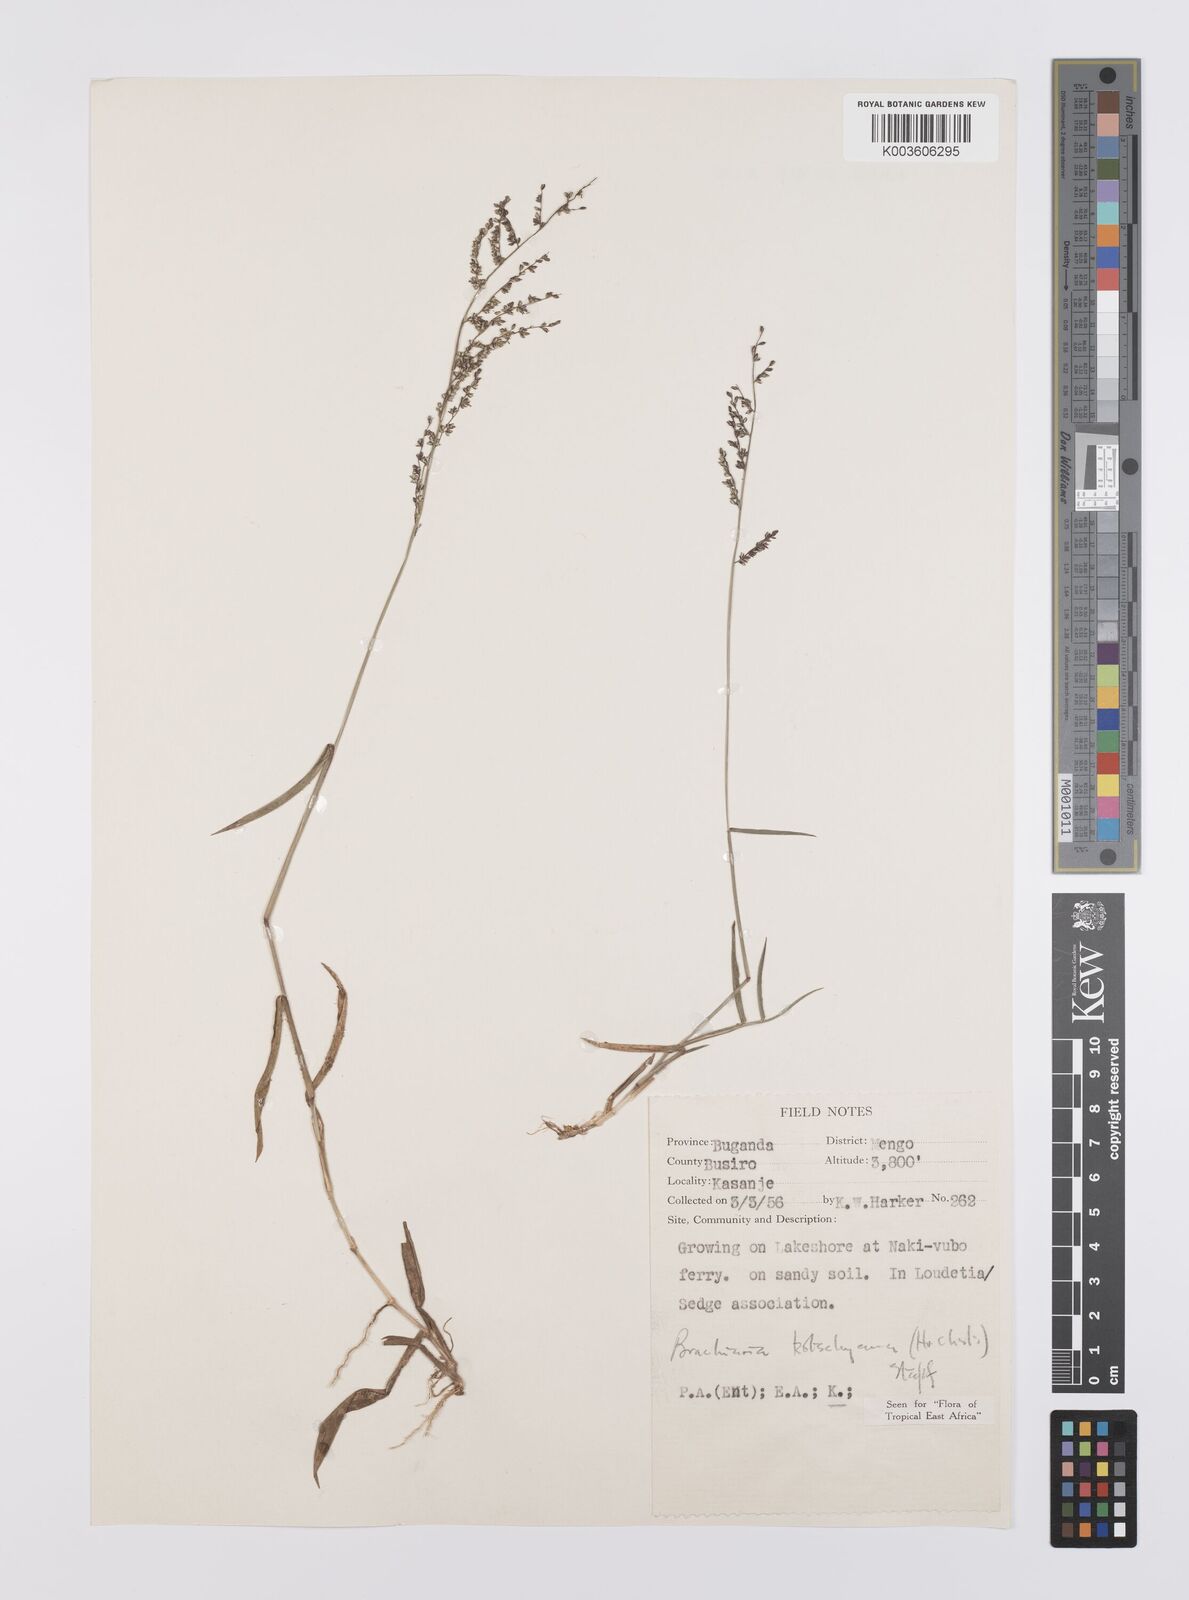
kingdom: Plantae
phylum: Tracheophyta
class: Liliopsida
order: Poales
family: Poaceae
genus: Urochloa
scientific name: Urochloa comata
